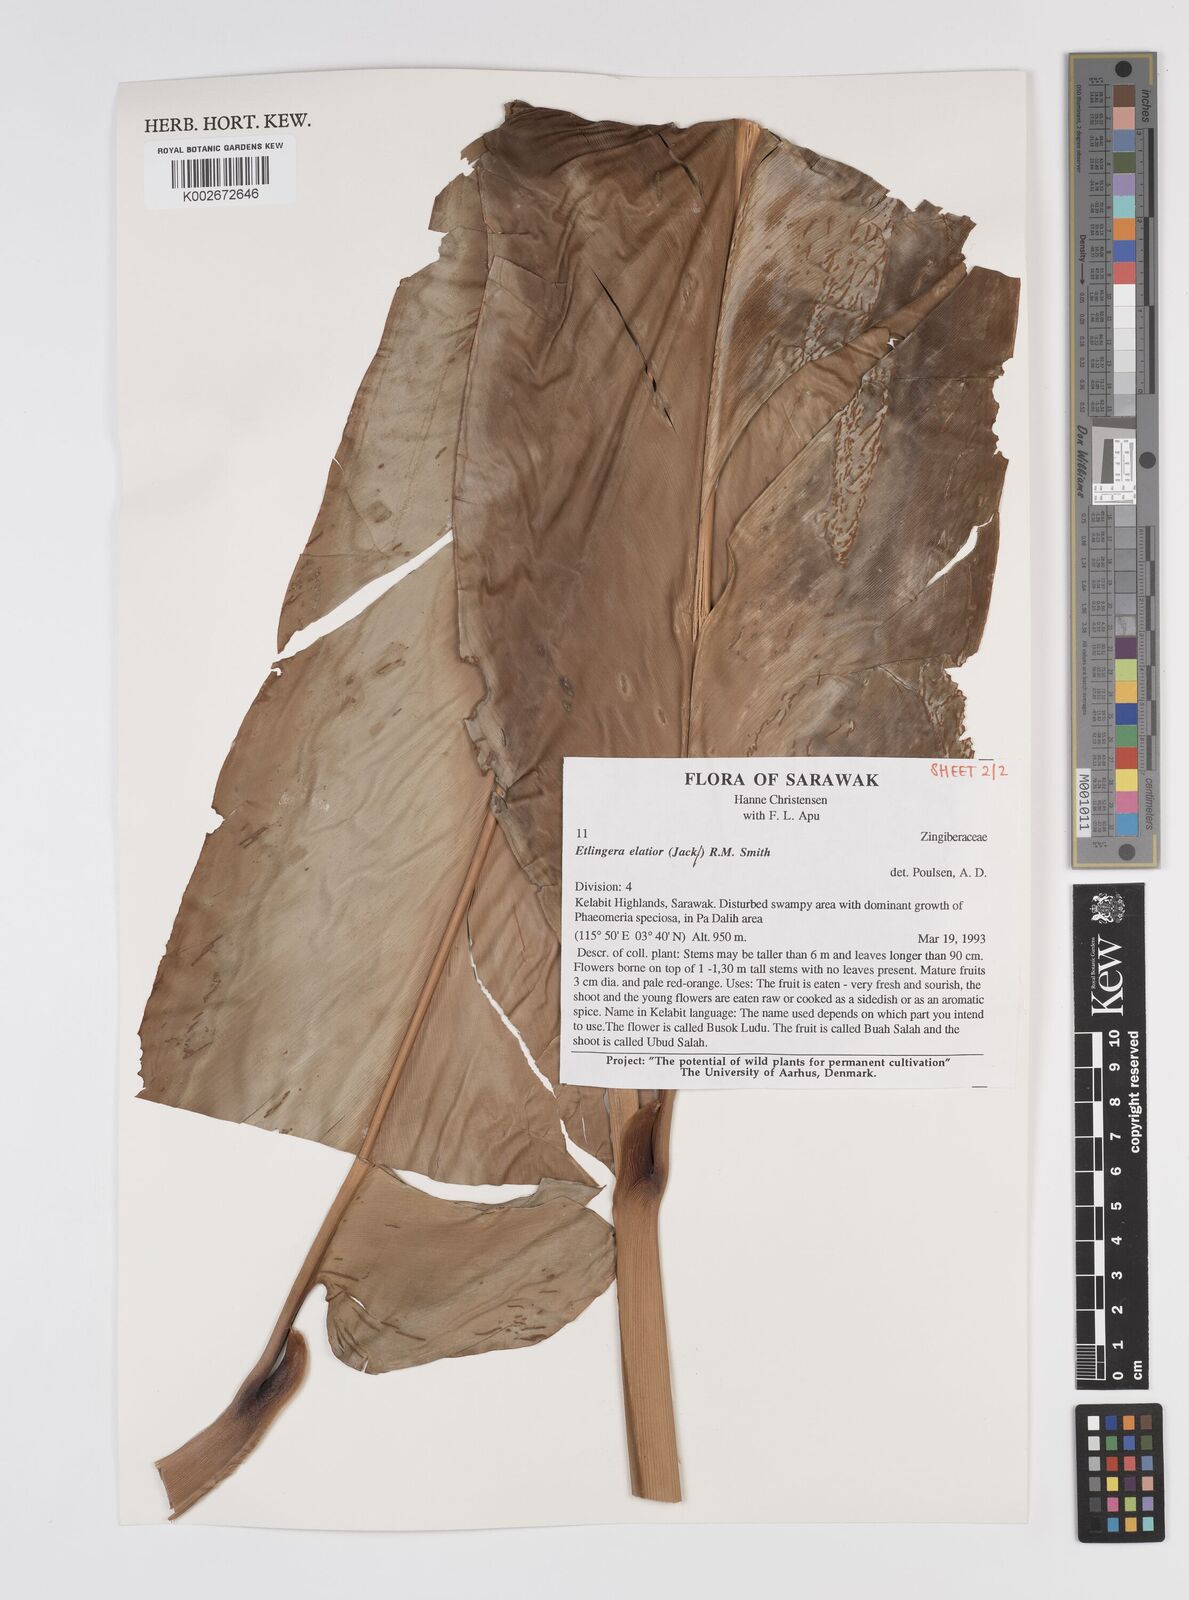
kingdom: Plantae
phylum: Tracheophyta
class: Liliopsida
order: Zingiberales
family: Zingiberaceae
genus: Etlingera
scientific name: Etlingera elatior
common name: Philippine waxflower
